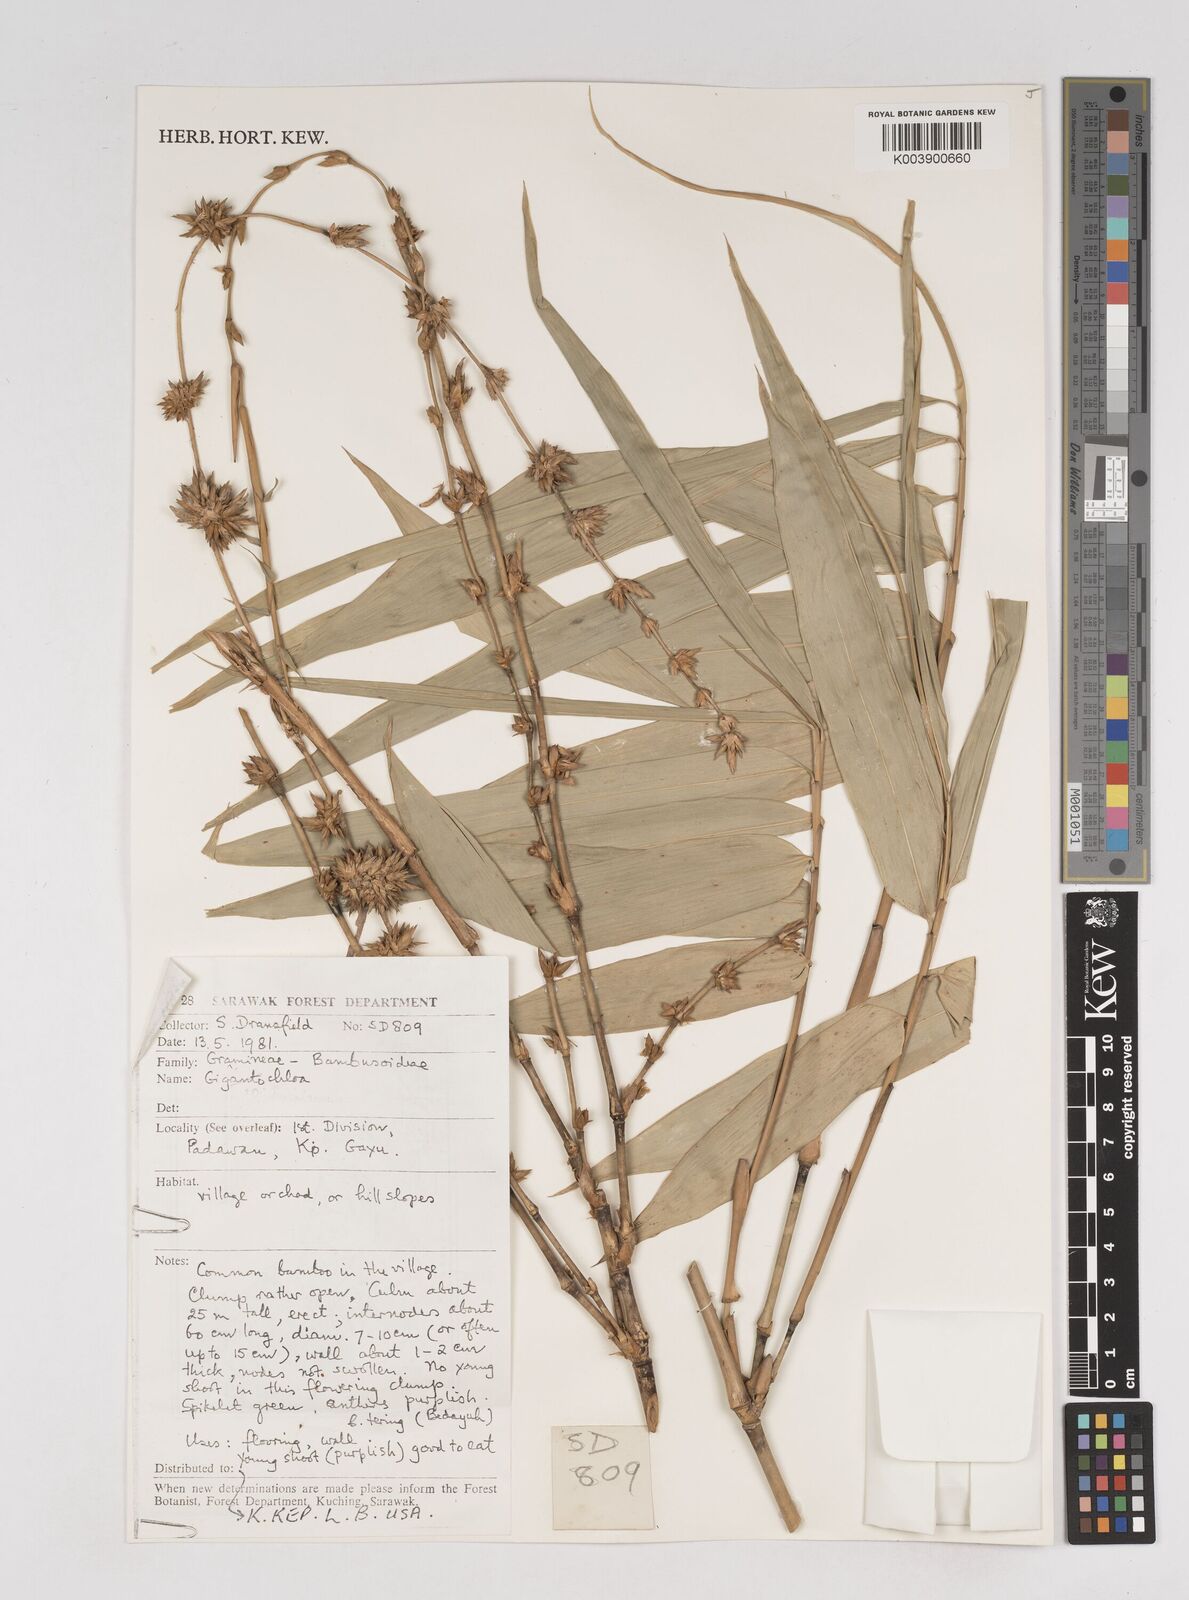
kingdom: Plantae
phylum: Tracheophyta
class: Liliopsida
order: Poales
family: Poaceae
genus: Gigantochloa
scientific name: Gigantochloa
